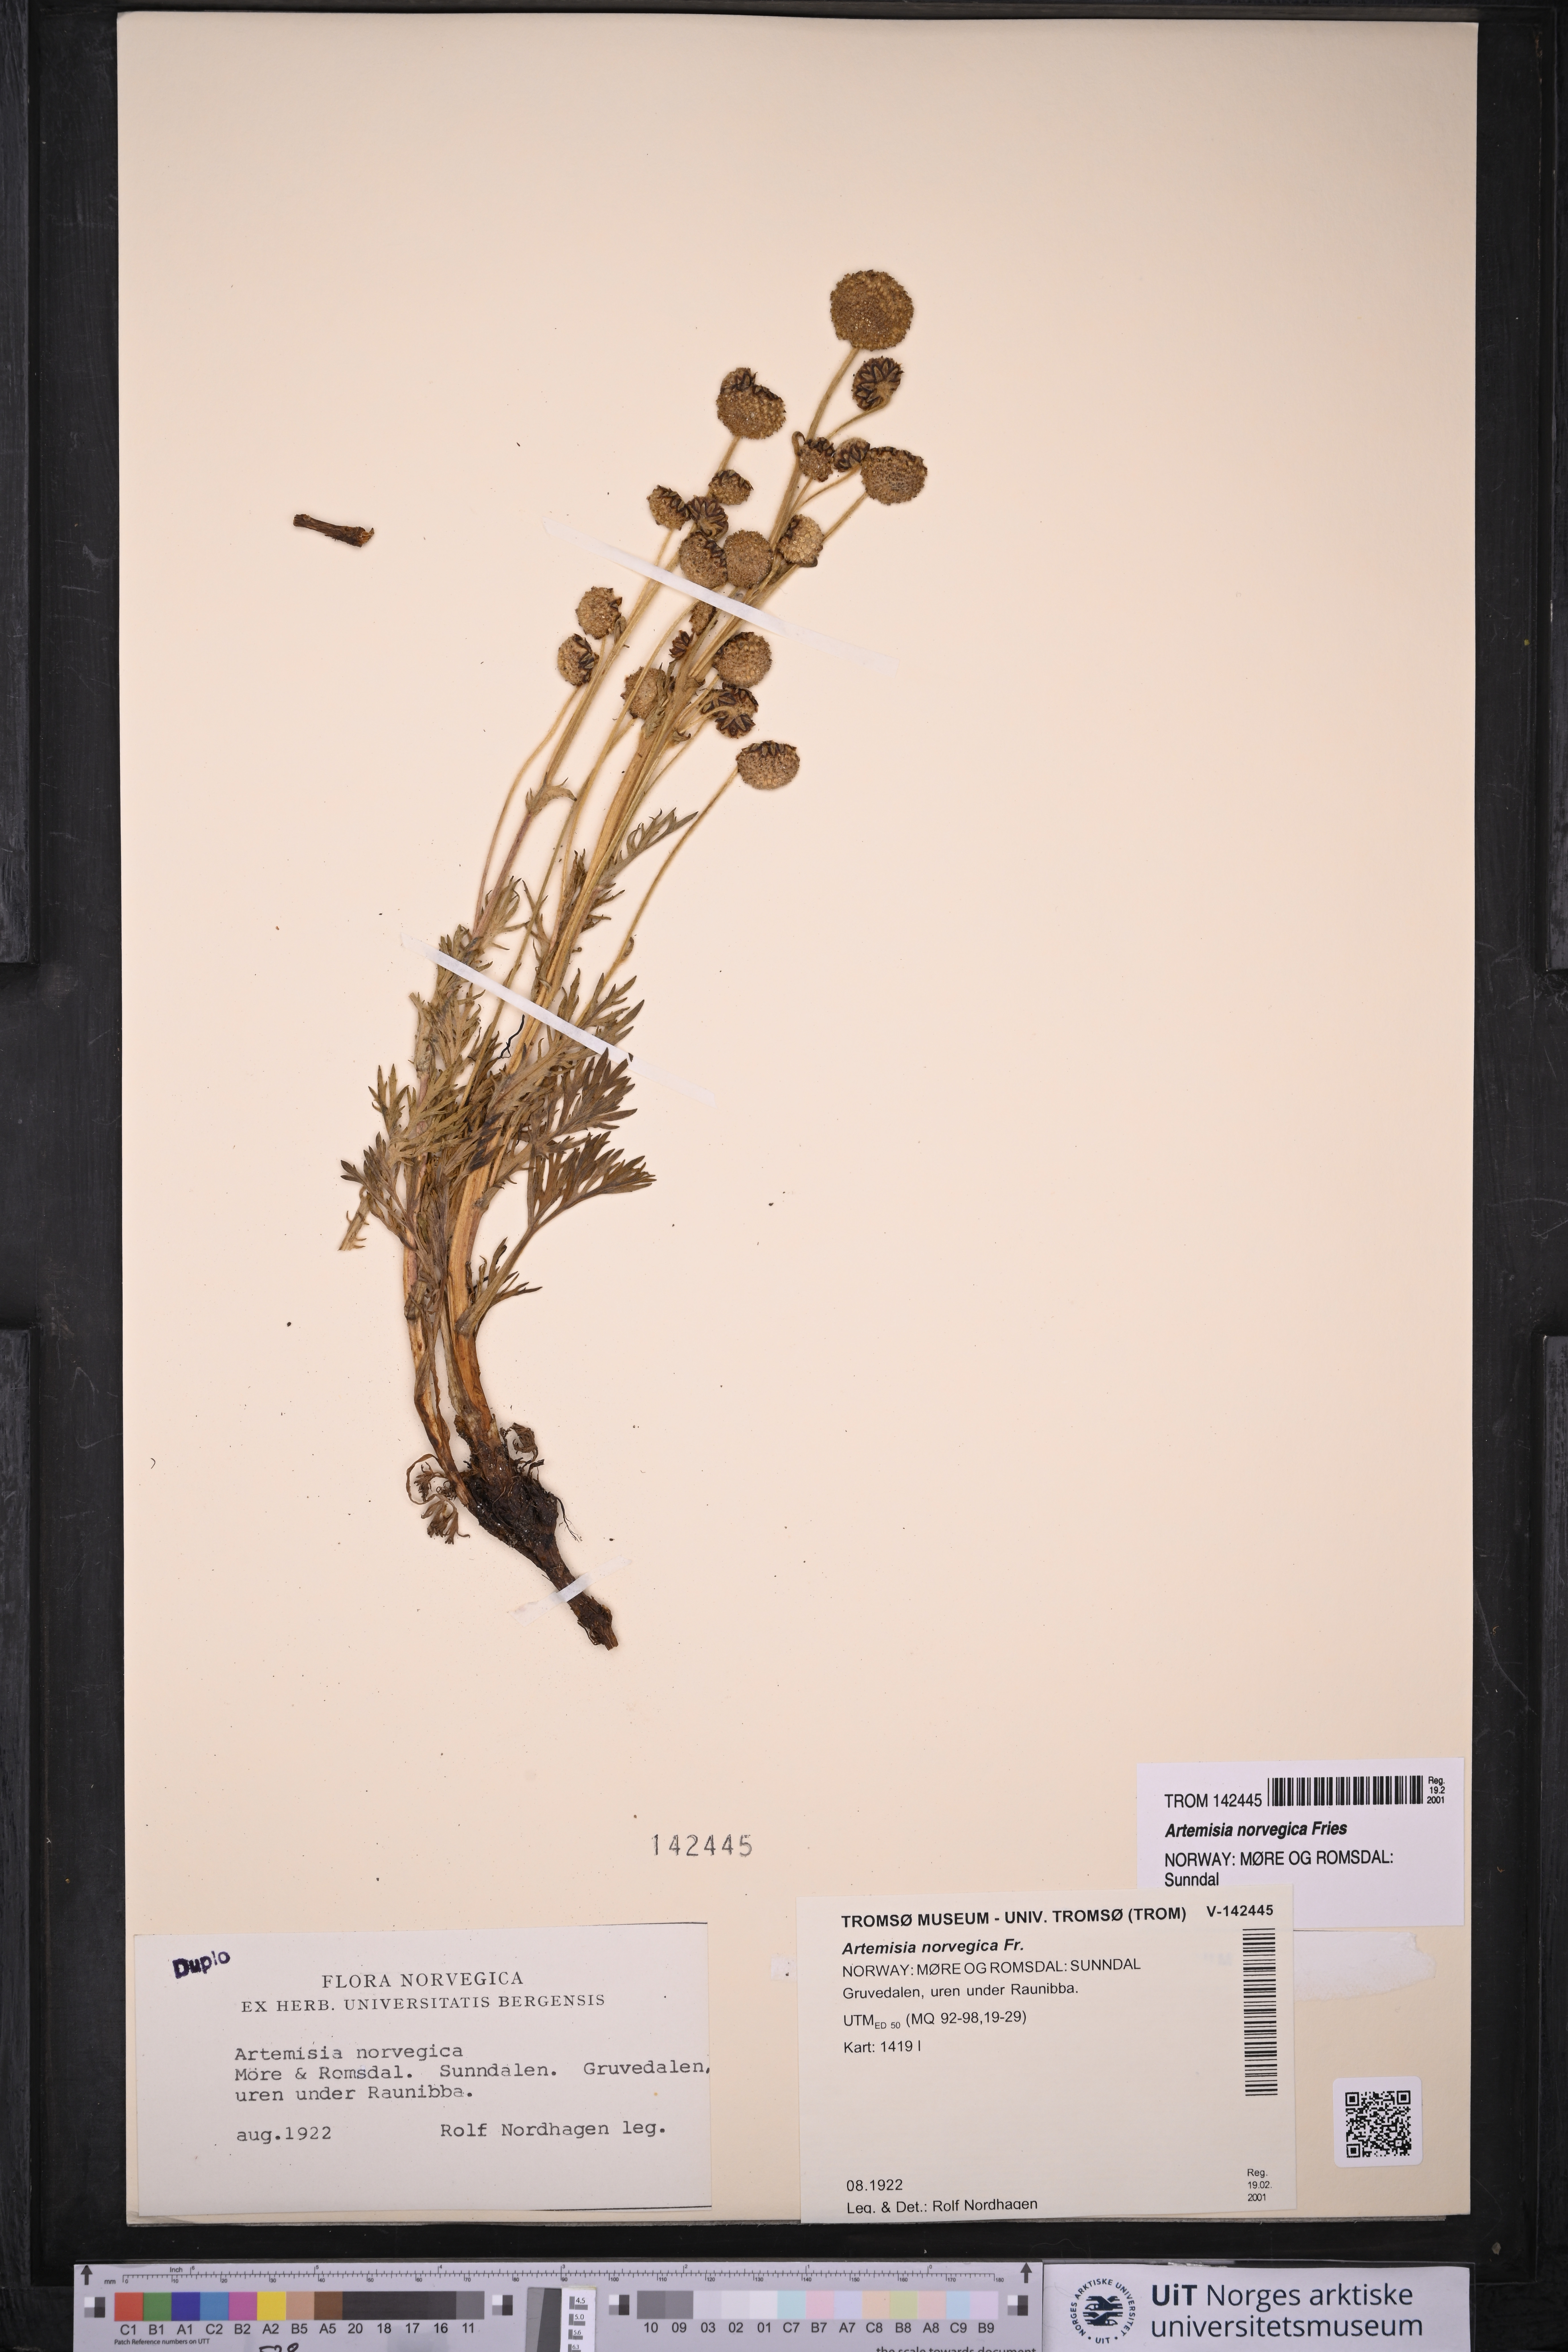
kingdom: Plantae
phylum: Tracheophyta
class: Magnoliopsida
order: Asterales
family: Asteraceae
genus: Artemisia
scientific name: Artemisia norvegica
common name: Norwegian mugwort
